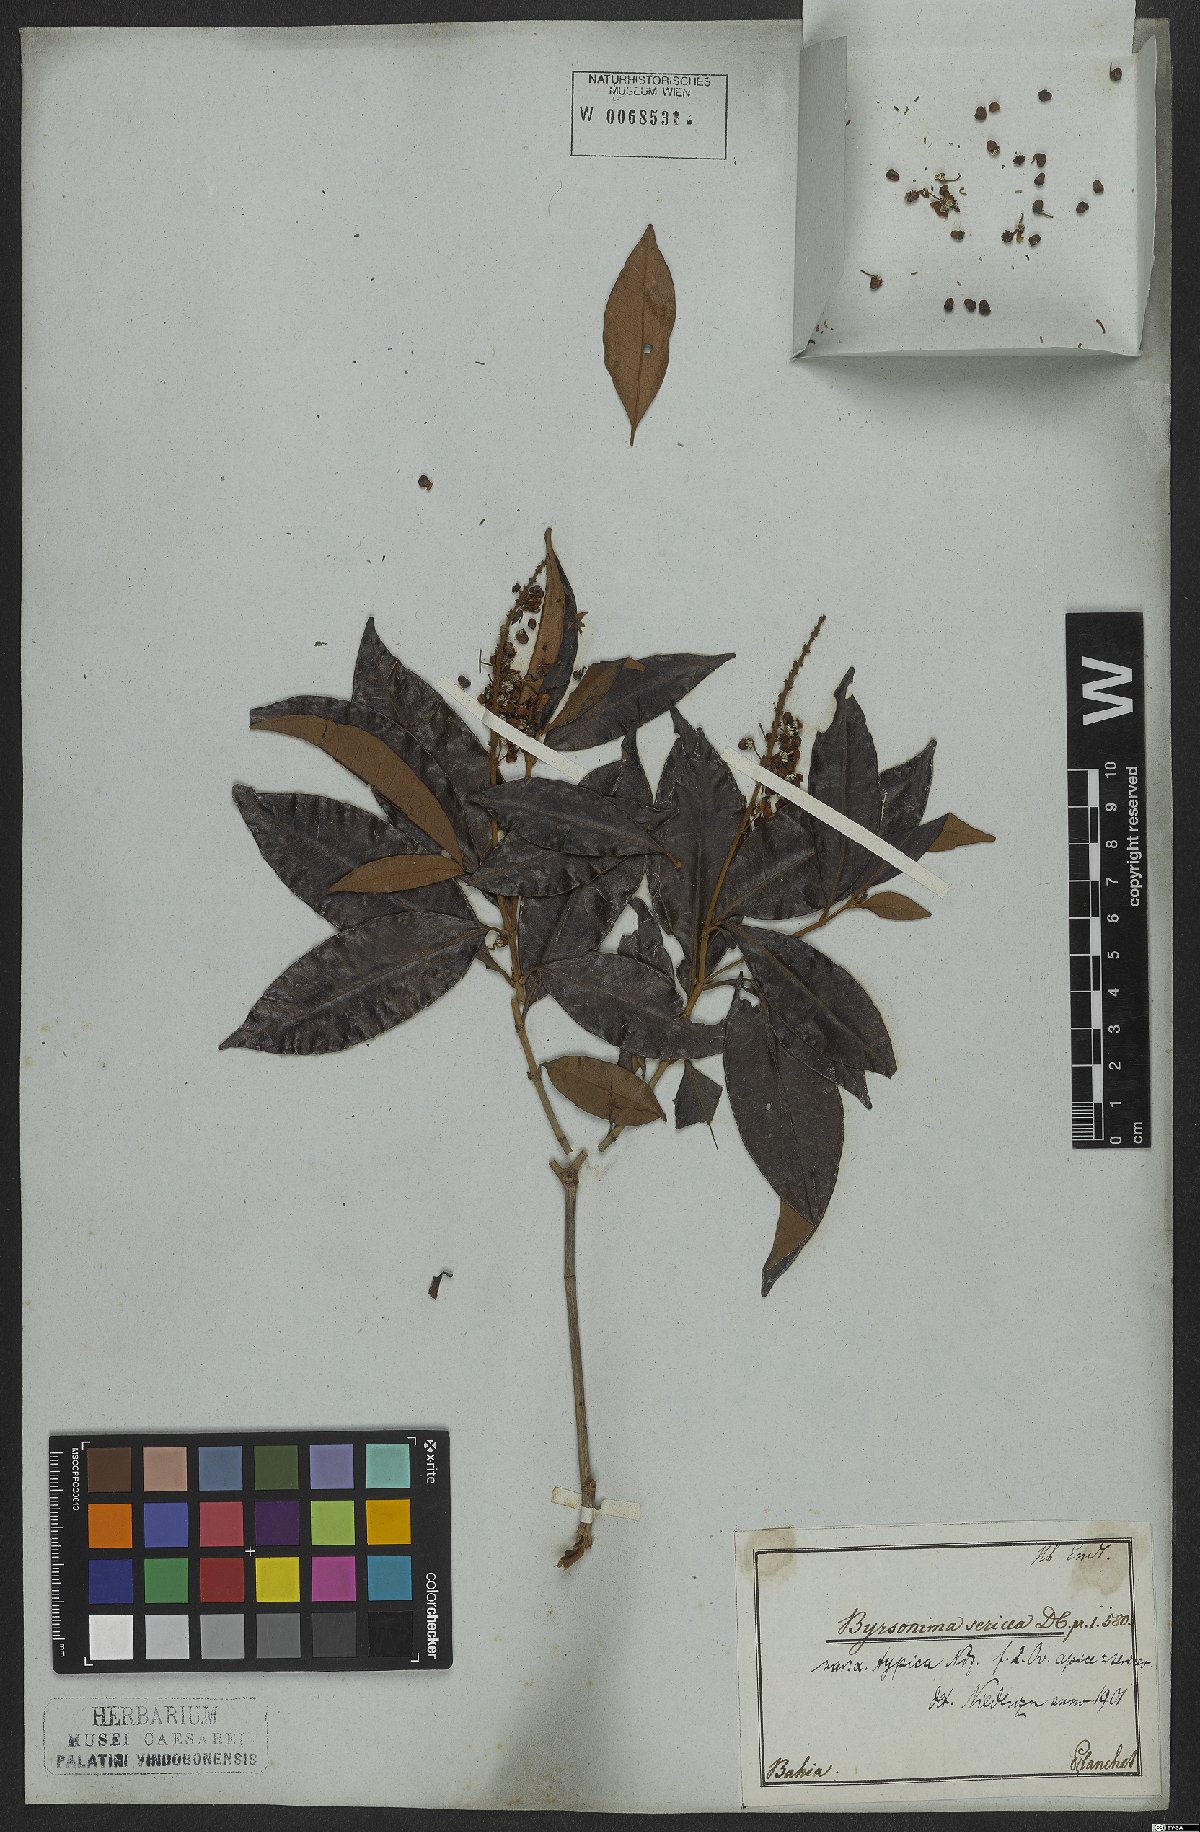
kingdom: Plantae
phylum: Tracheophyta
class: Magnoliopsida
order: Malpighiales
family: Malpighiaceae
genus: Byrsonima
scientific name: Byrsonima sericea
